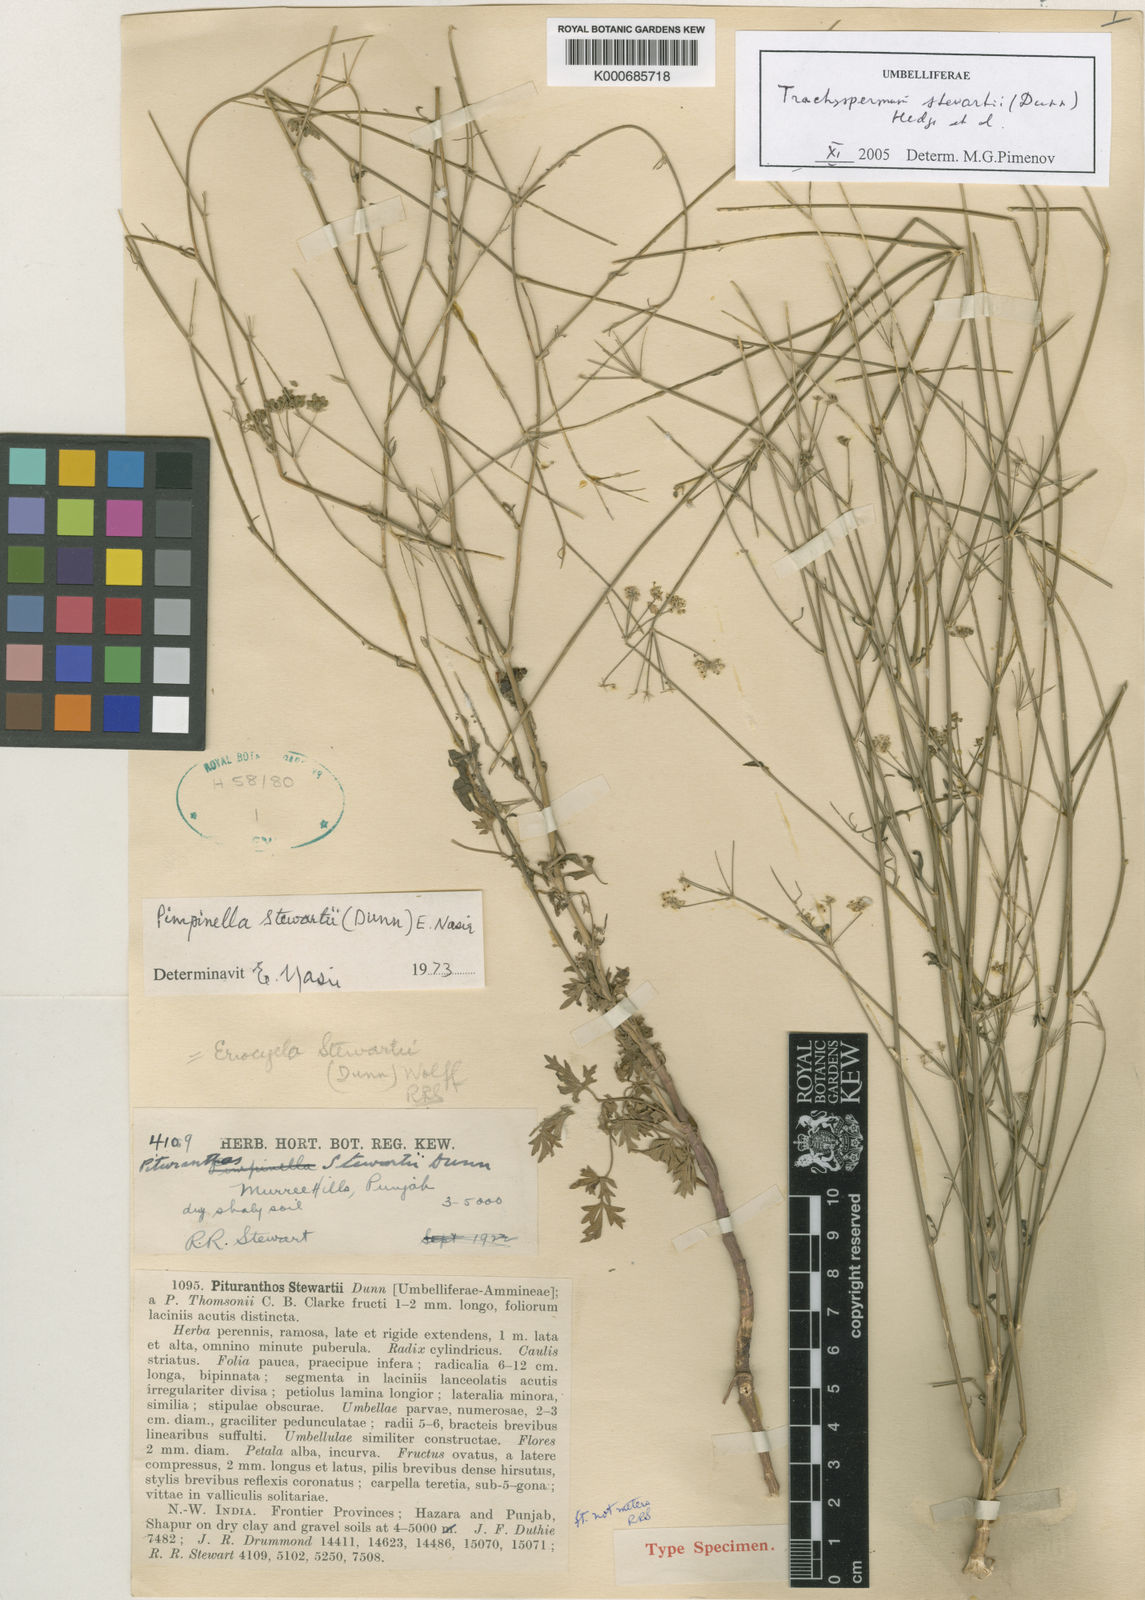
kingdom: Plantae
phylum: Tracheophyta
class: Magnoliopsida
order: Apiales
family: Apiaceae
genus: Trachyspermum
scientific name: Trachyspermum stewartii
